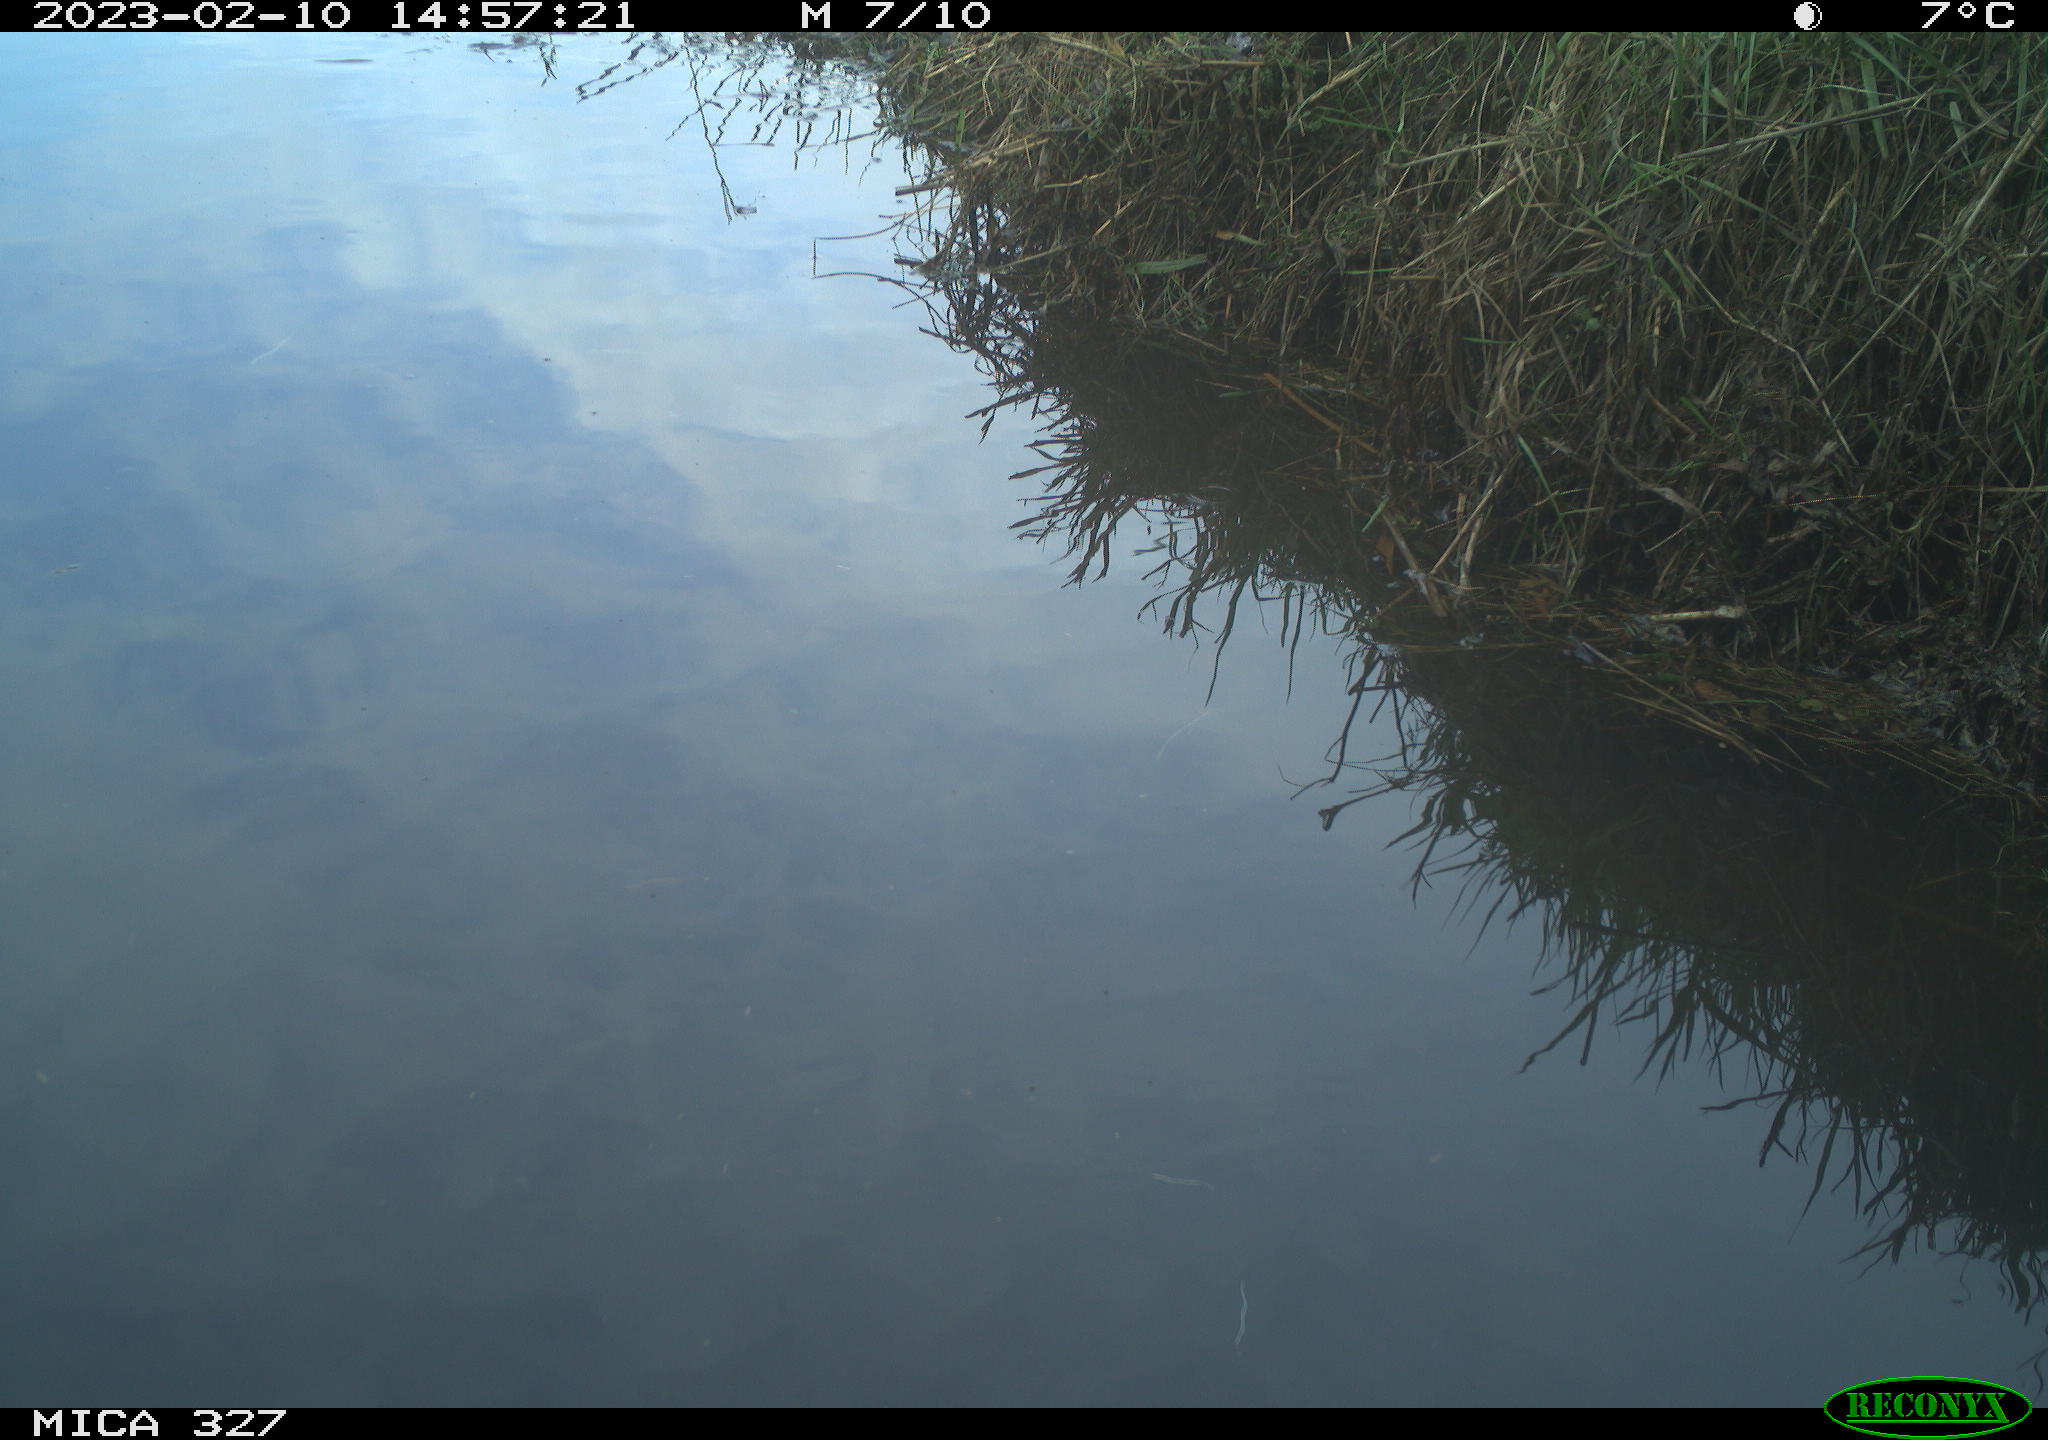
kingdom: Animalia
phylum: Chordata
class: Aves
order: Gruiformes
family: Rallidae
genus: Gallinula
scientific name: Gallinula chloropus
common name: Common moorhen
